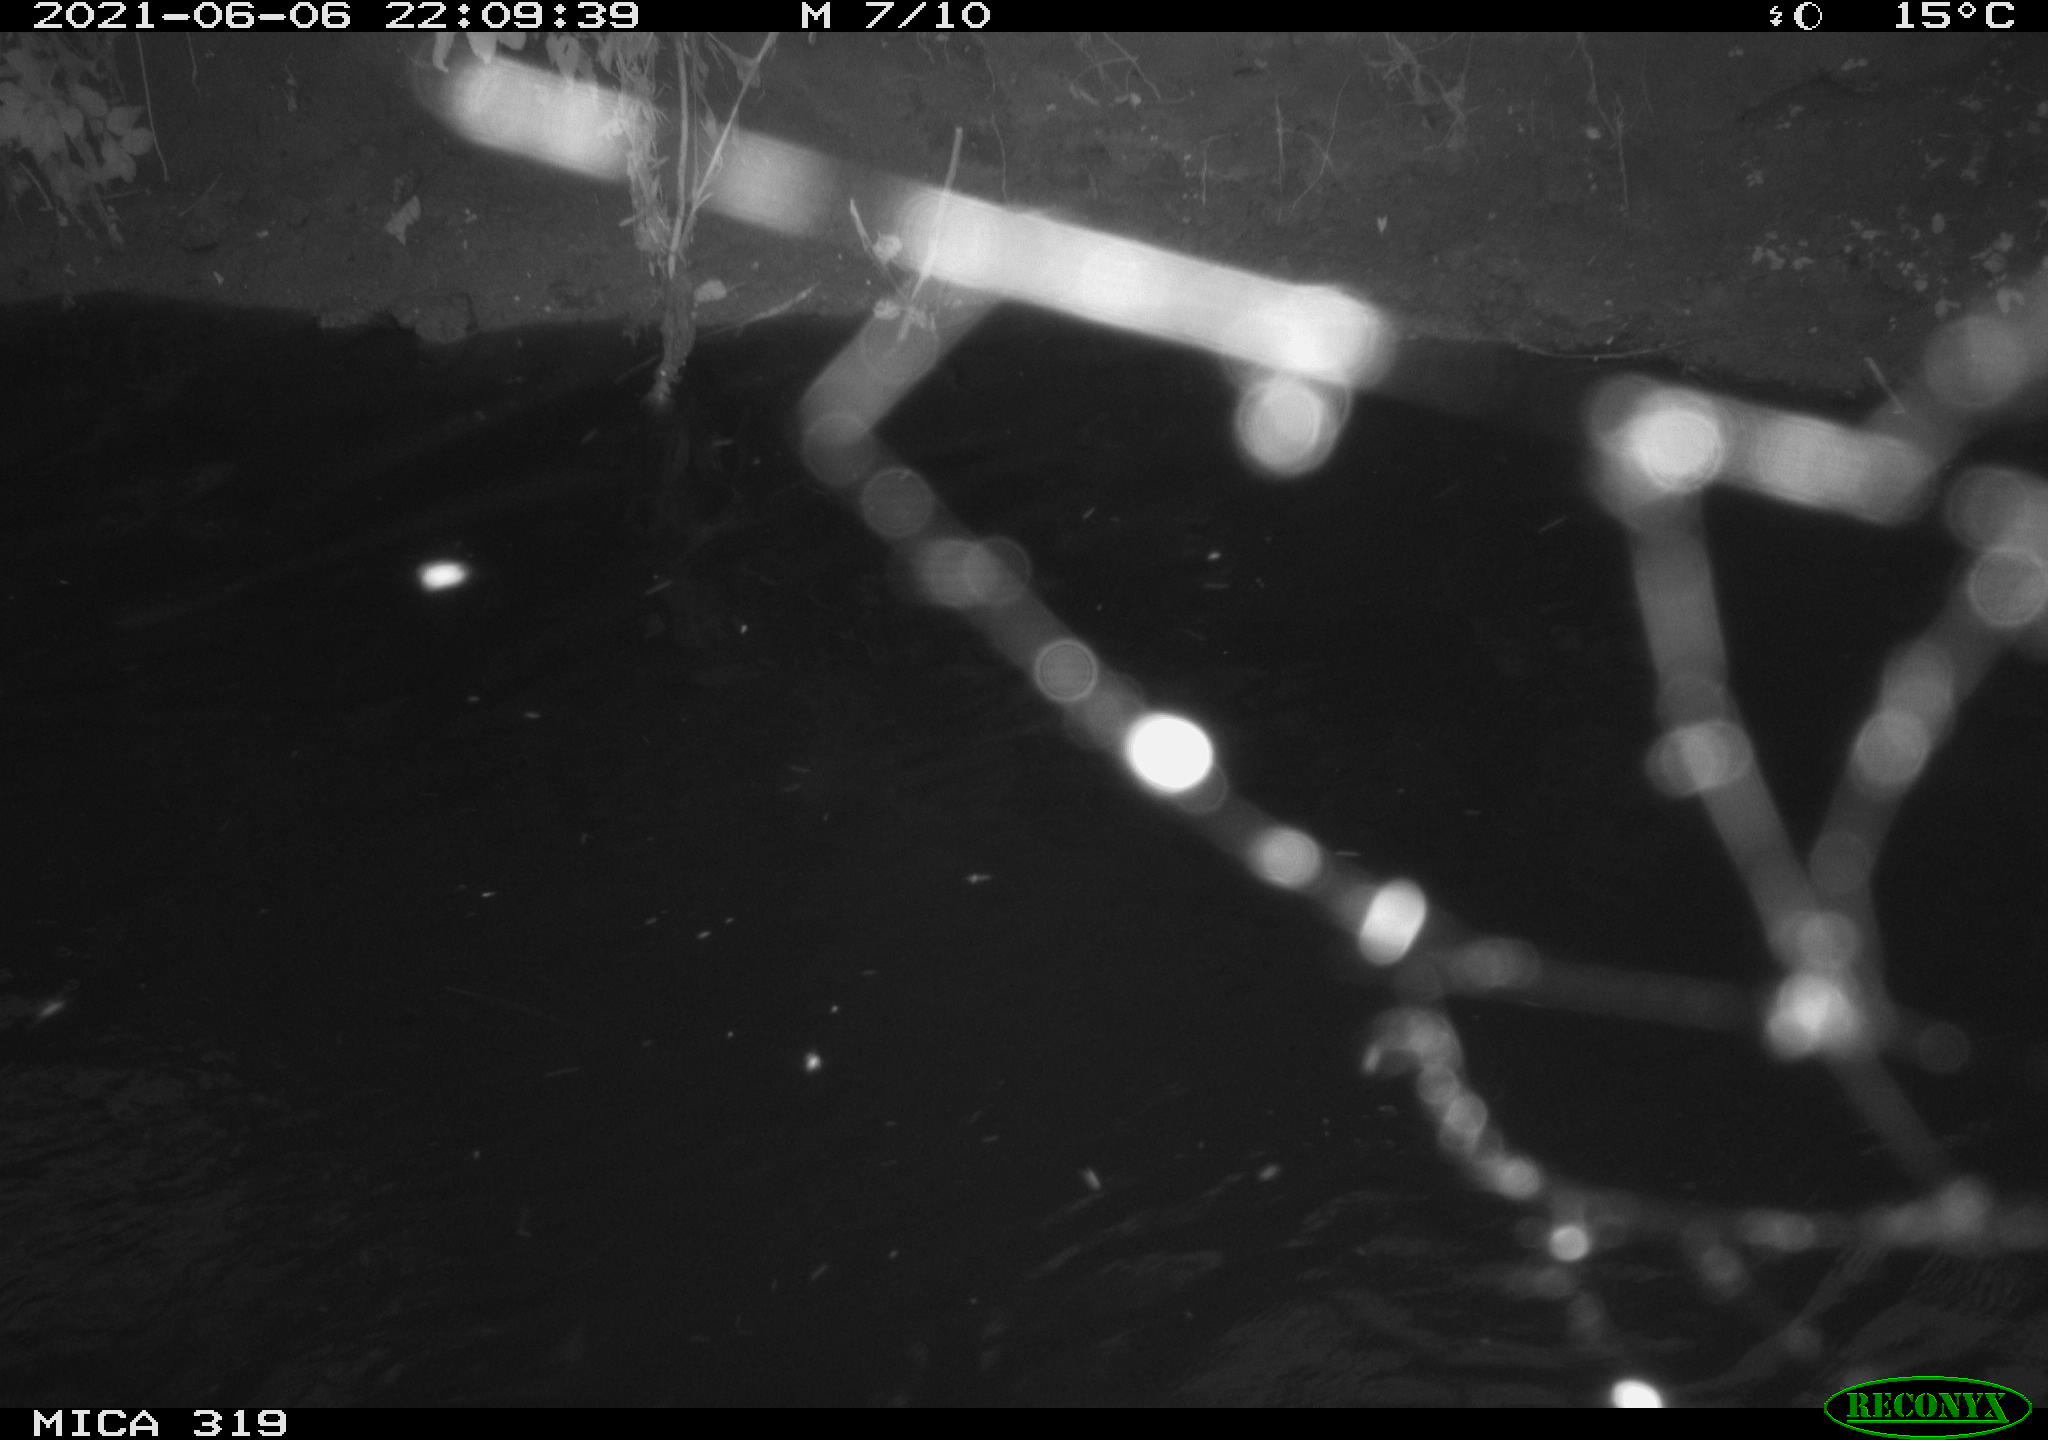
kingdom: Animalia
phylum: Chordata
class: Aves
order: Anseriformes
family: Anatidae
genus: Anas
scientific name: Anas platyrhynchos
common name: Mallard
